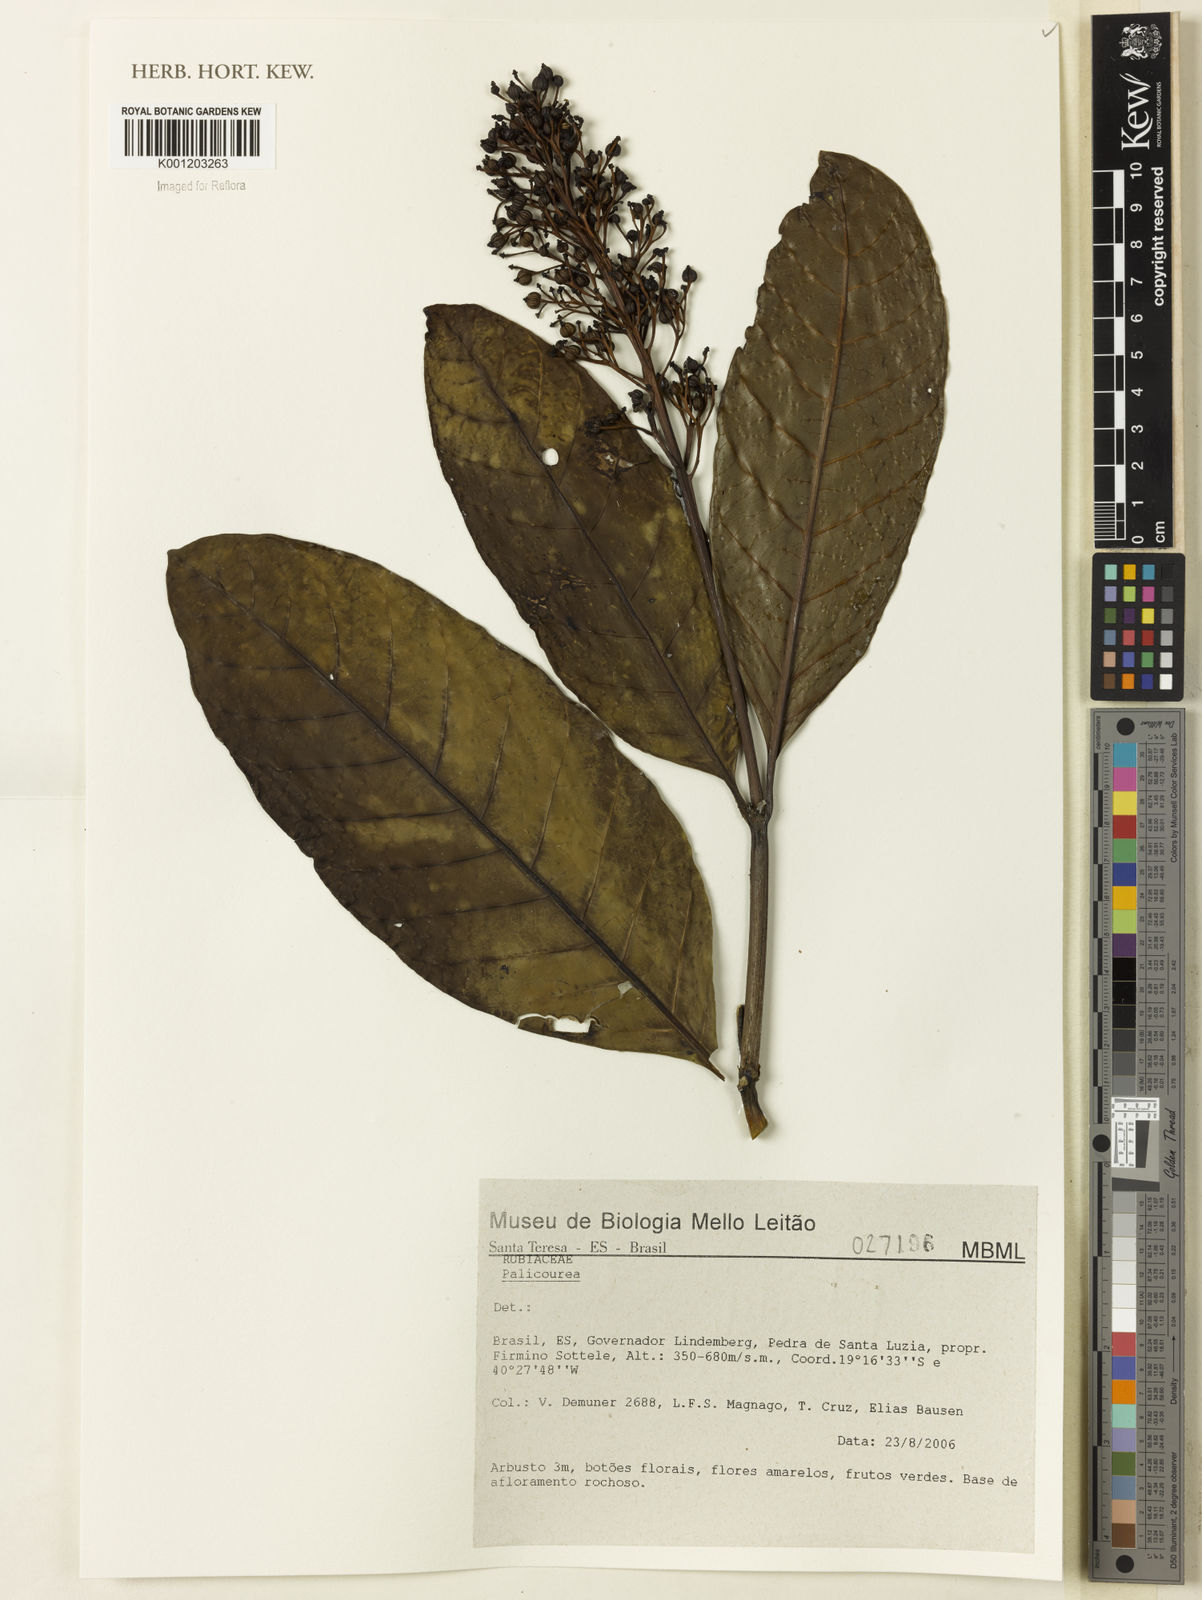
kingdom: Plantae
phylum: Tracheophyta
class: Magnoliopsida
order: Gentianales
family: Rubiaceae
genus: Palicourea
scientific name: Palicourea
